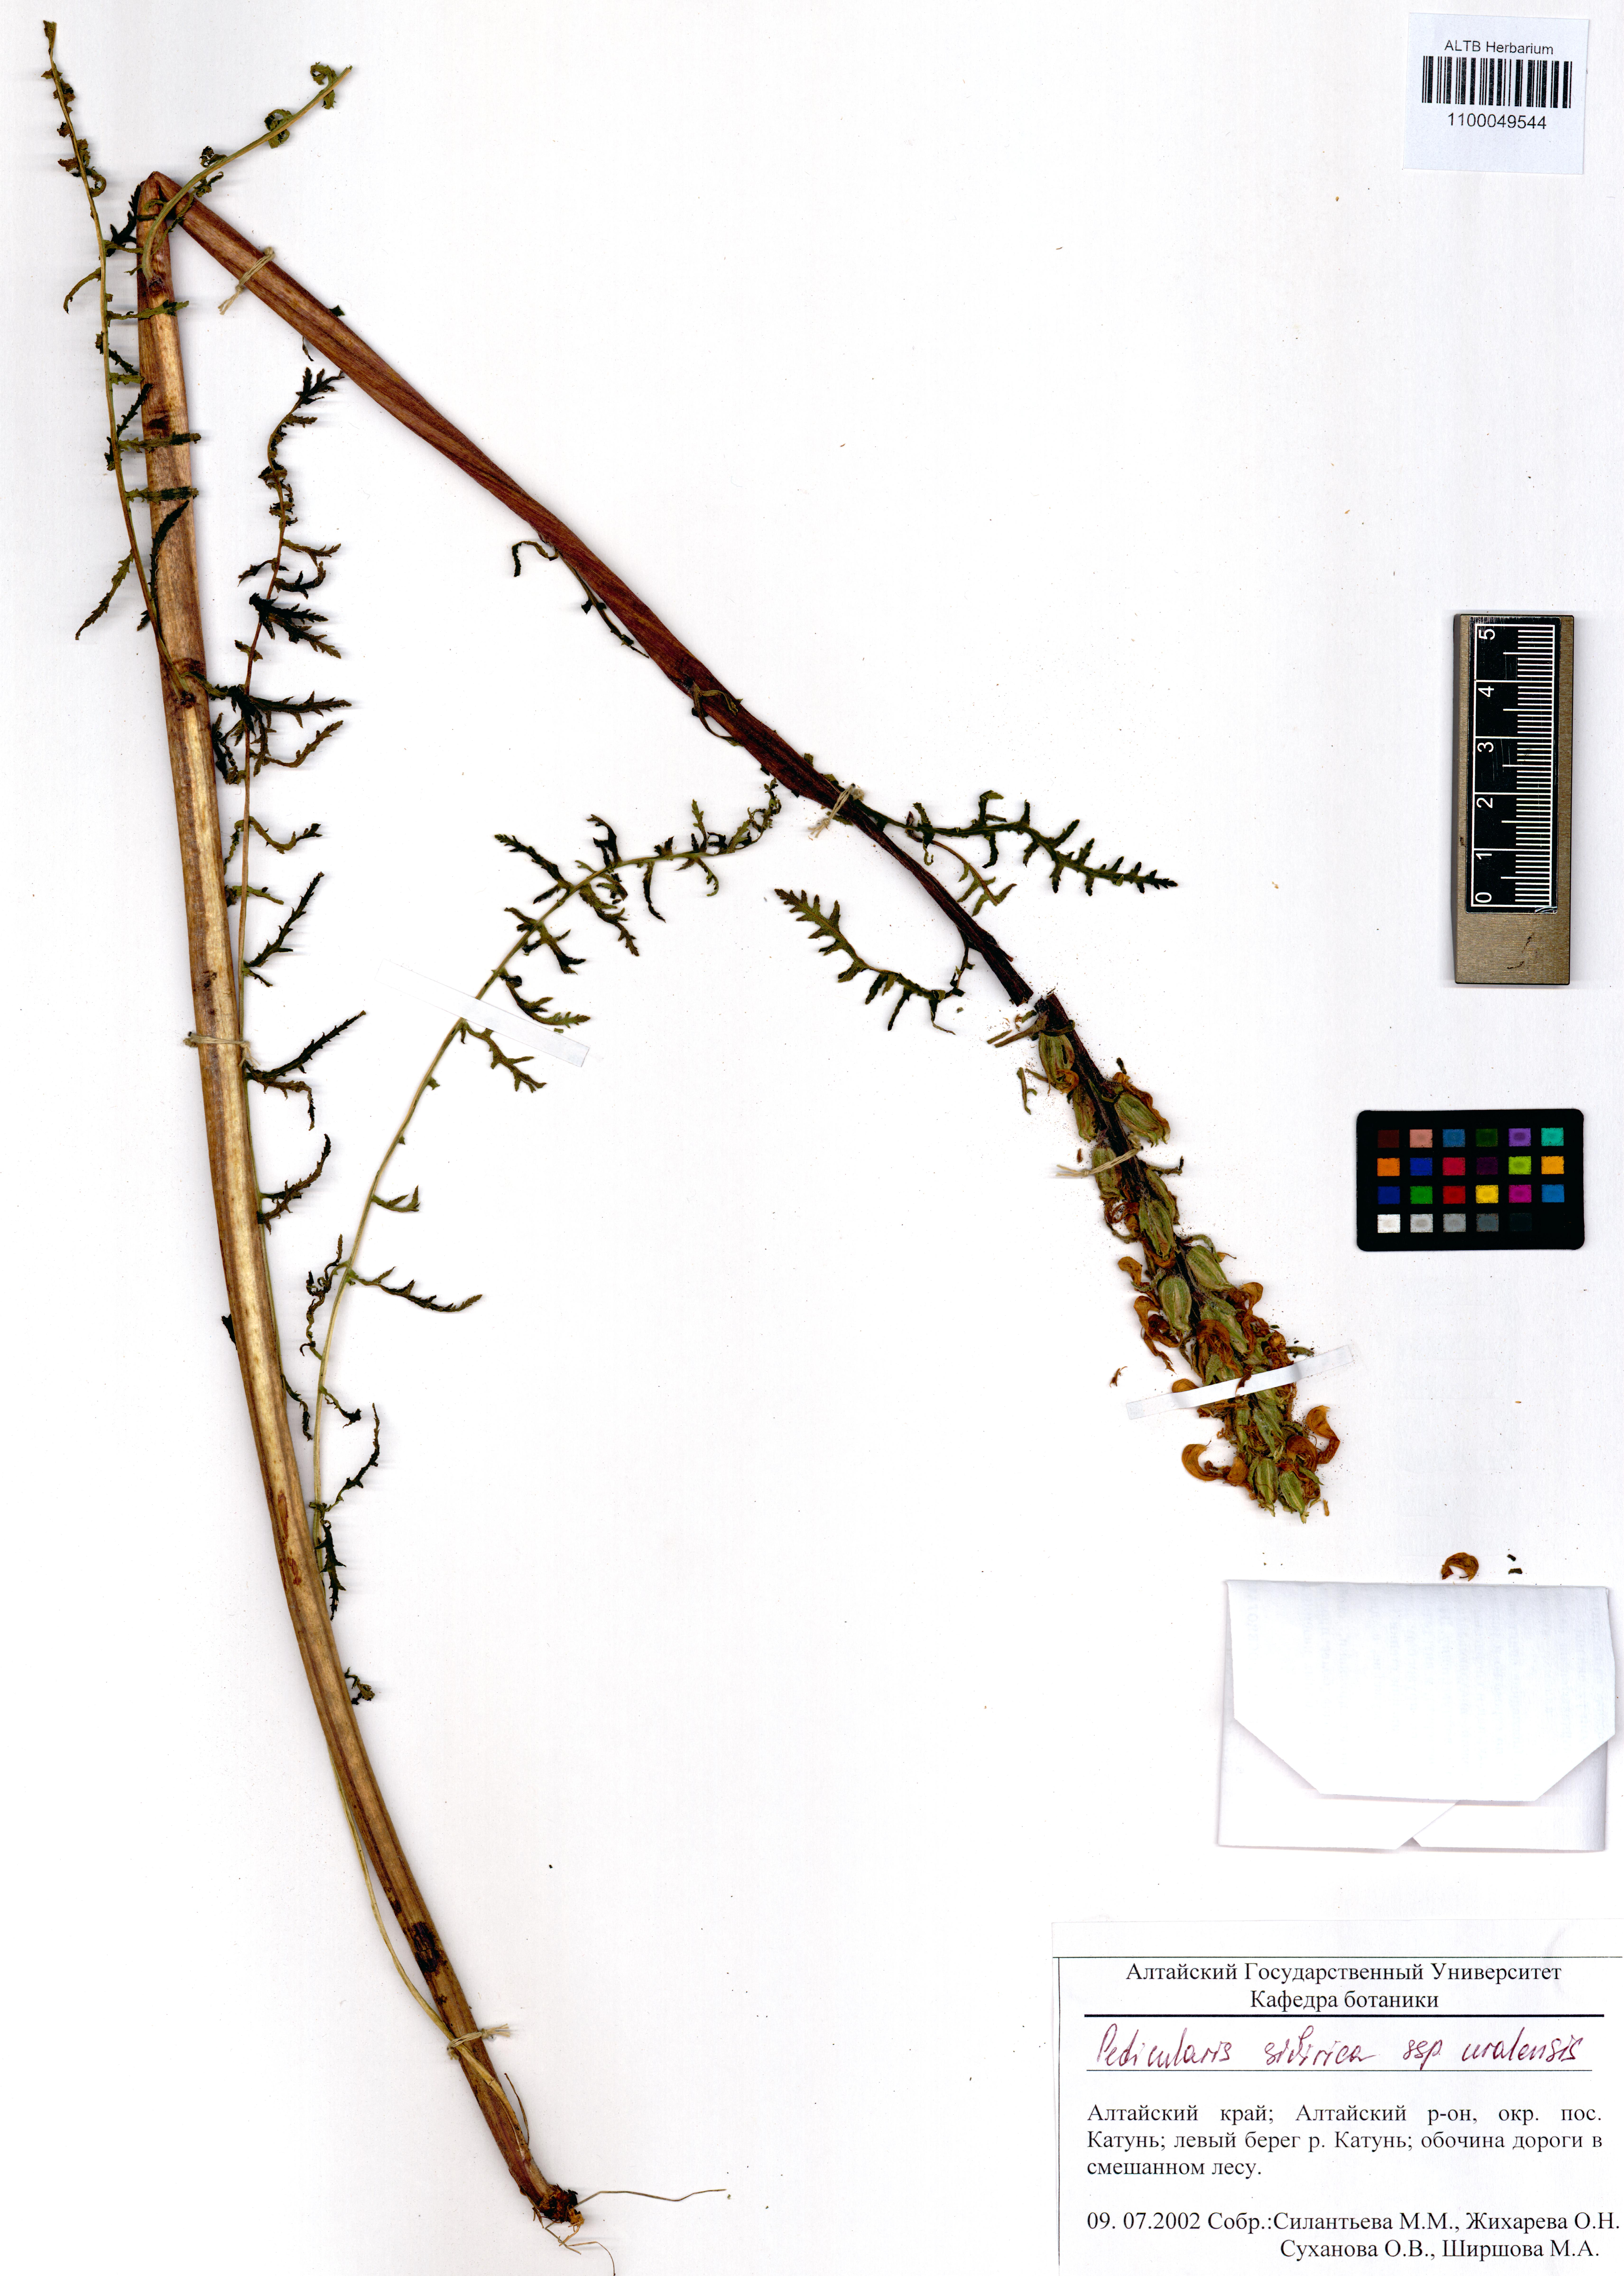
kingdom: Plantae
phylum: Tracheophyta
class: Magnoliopsida
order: Lamiales
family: Orobanchaceae
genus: Pedicularis
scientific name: Pedicularis uralensis
